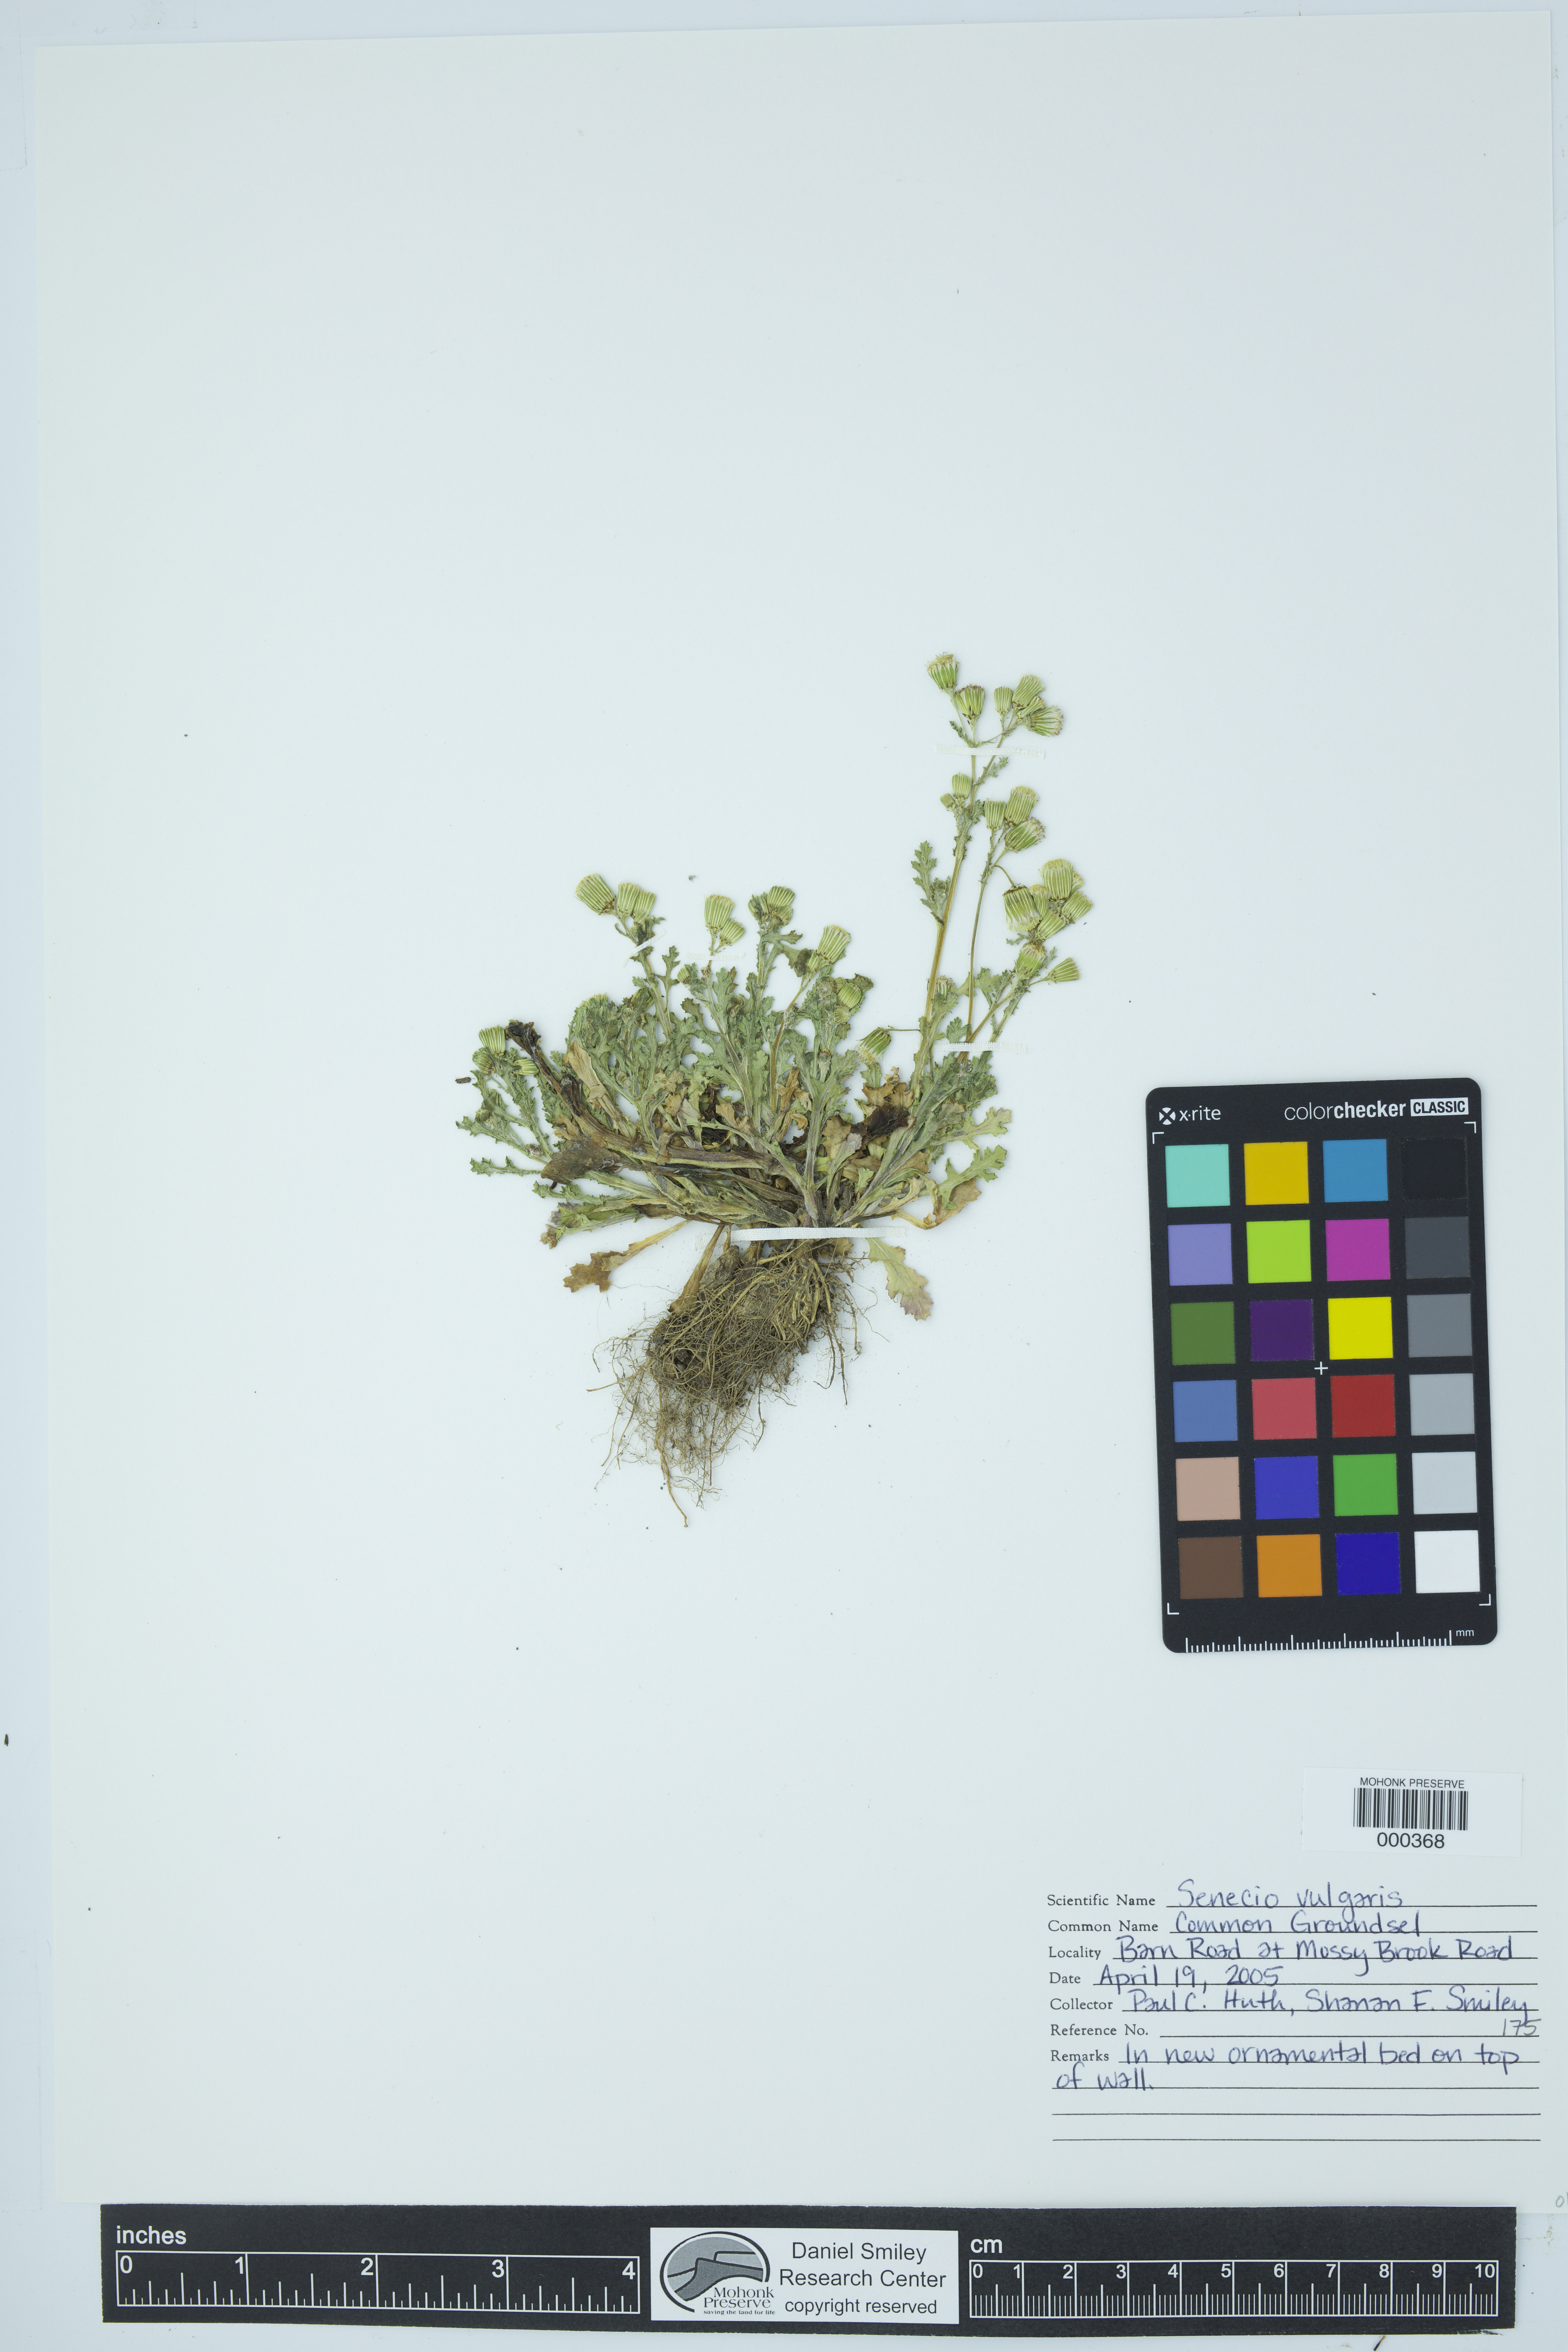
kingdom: Plantae
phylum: Tracheophyta
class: Magnoliopsida
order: Asterales
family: Asteraceae
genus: Senecio
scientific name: Senecio vulgaris
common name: Old-man-in-the-spring
